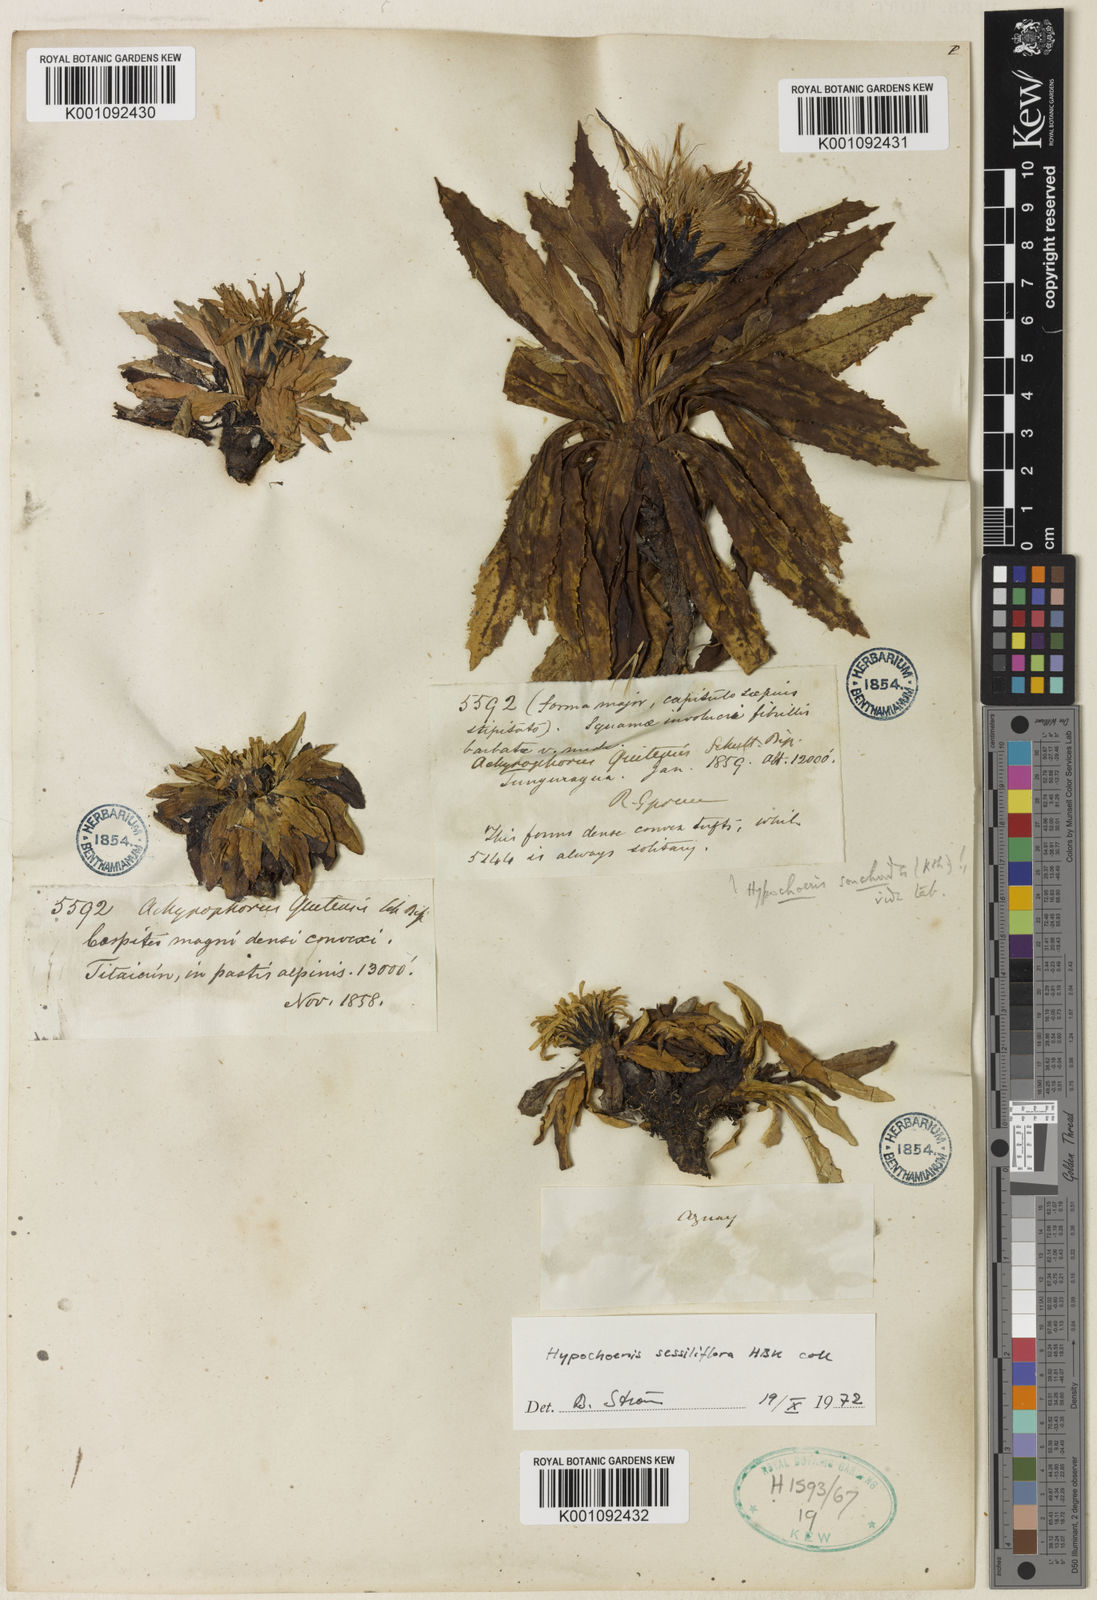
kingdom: Plantae
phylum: Tracheophyta
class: Magnoliopsida
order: Asterales
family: Asteraceae
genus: Hypochaeris
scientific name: Hypochaeris
